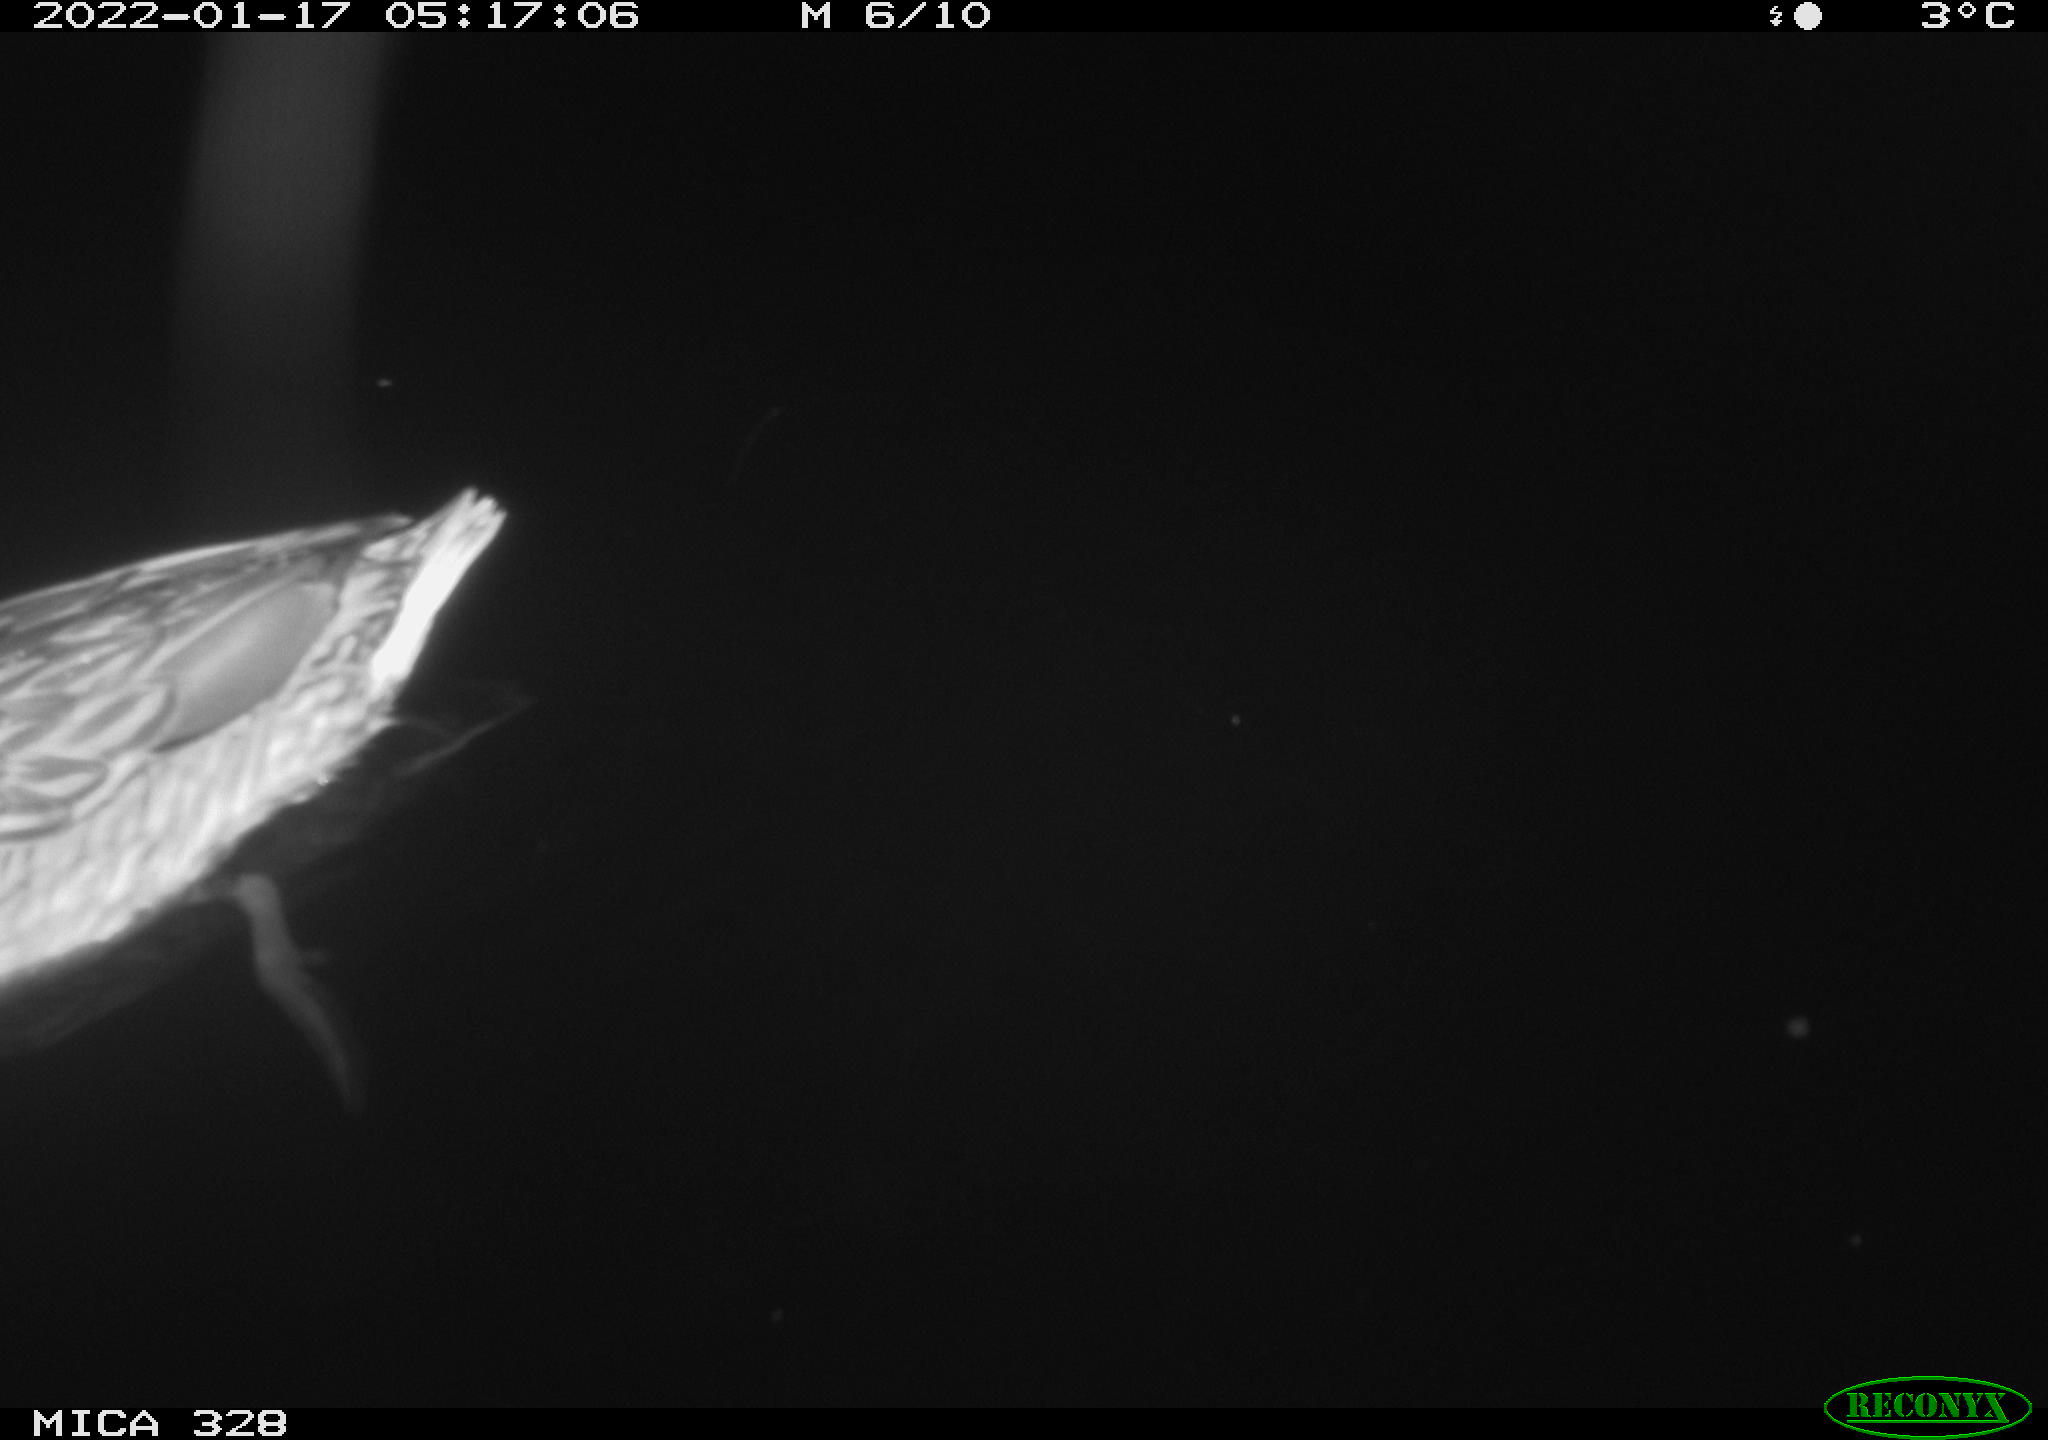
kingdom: Animalia
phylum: Chordata
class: Aves
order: Anseriformes
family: Anatidae
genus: Anas
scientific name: Anas platyrhynchos
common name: Mallard
